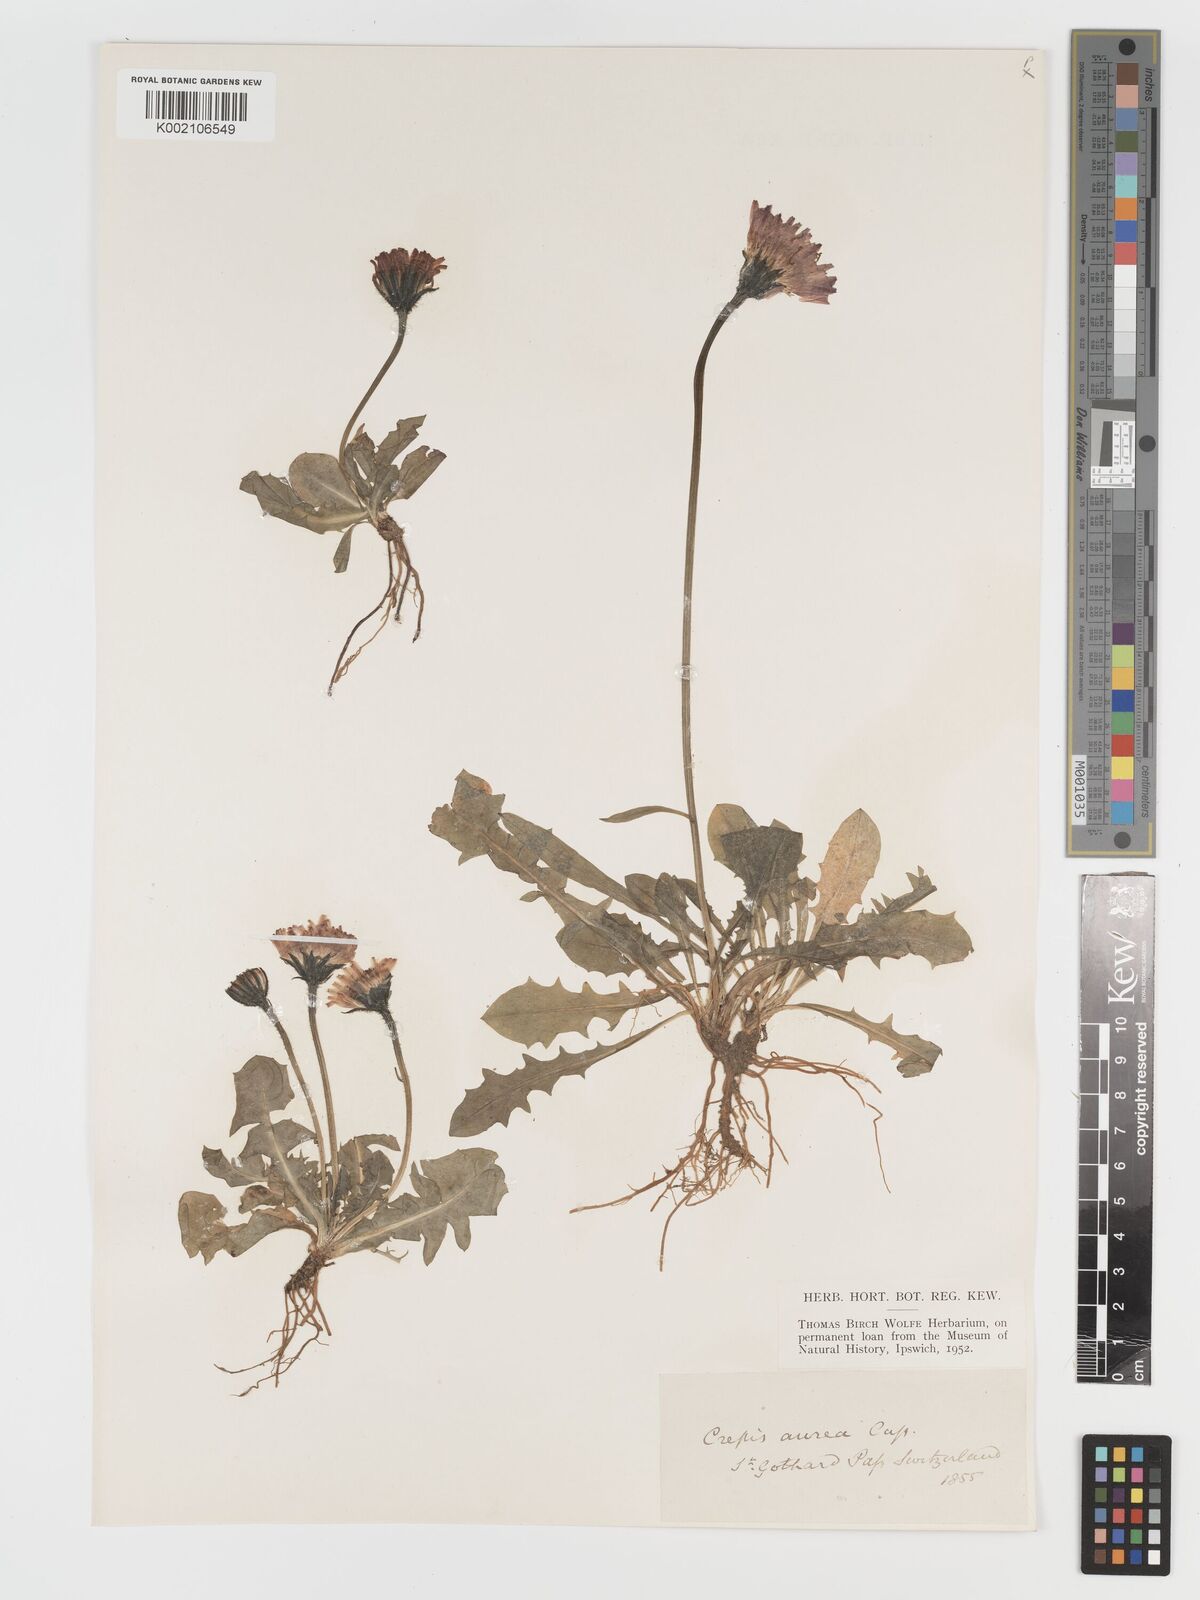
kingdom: Plantae
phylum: Tracheophyta
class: Magnoliopsida
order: Asterales
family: Asteraceae
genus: Crepis
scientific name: Crepis aurea
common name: Golden hawk's-beard
